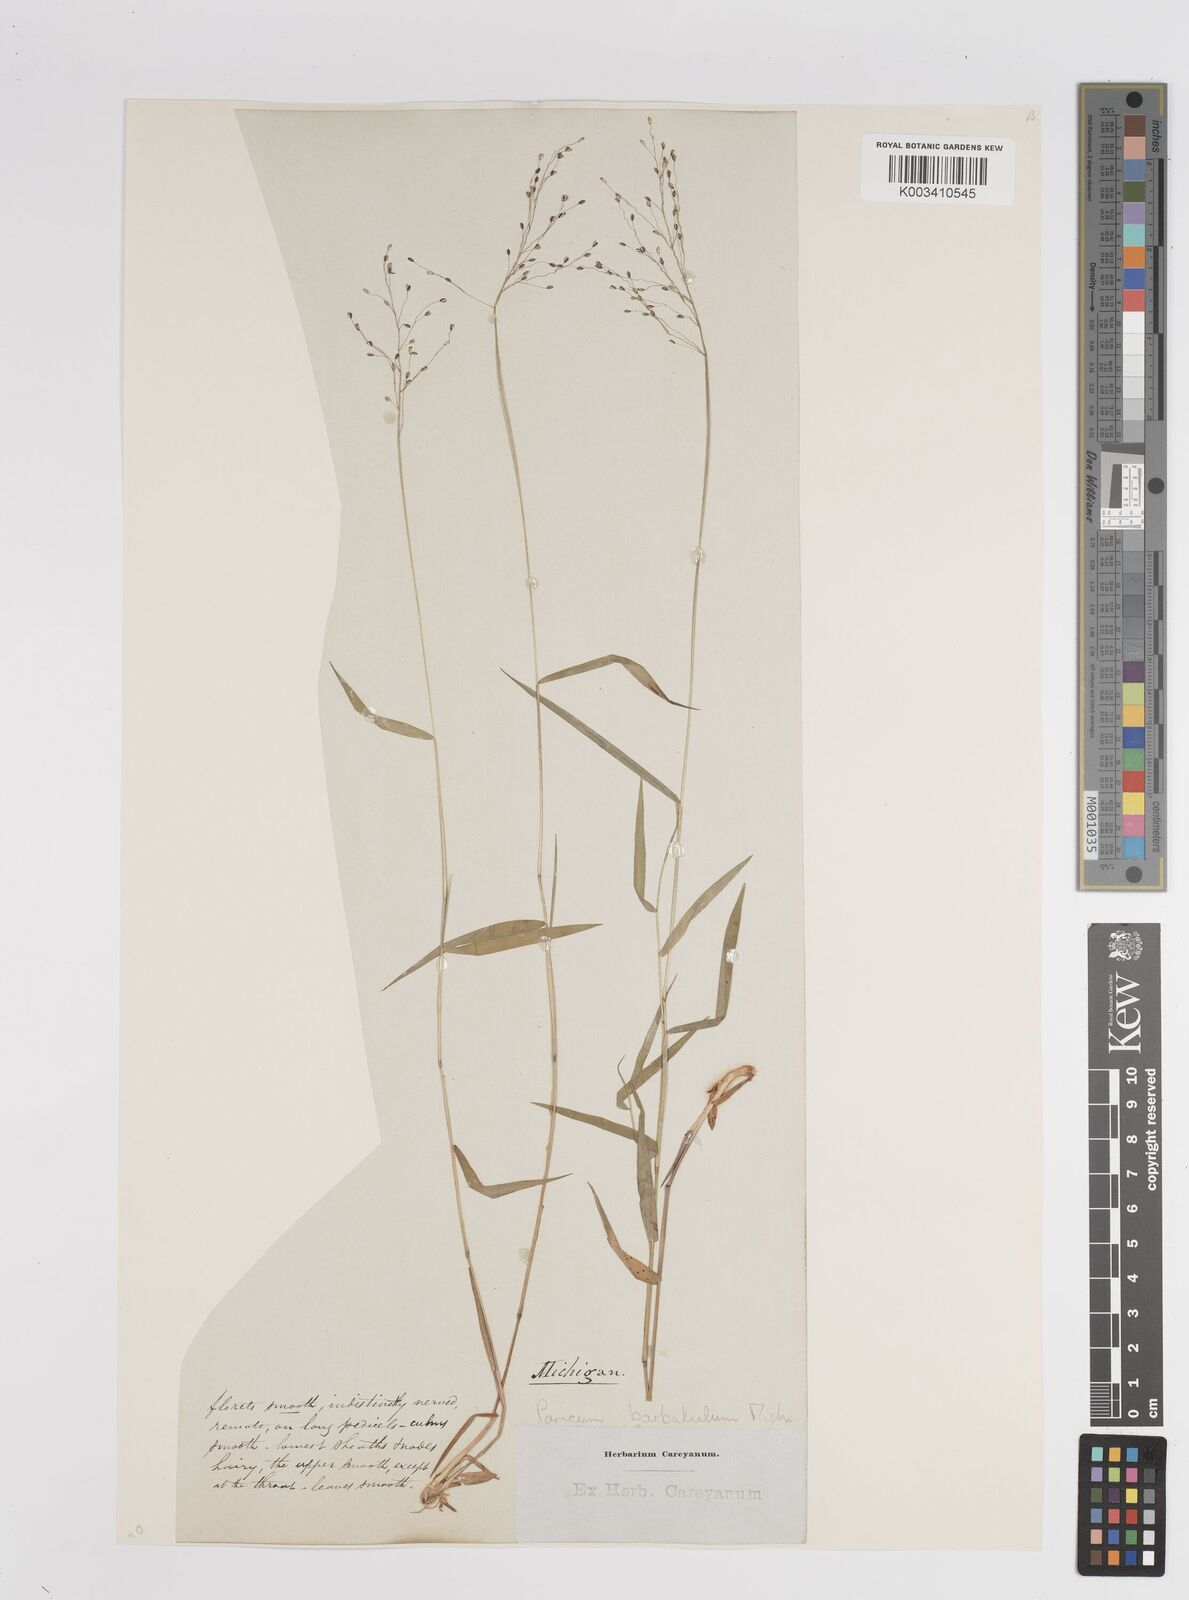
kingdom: Plantae
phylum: Tracheophyta
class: Liliopsida
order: Poales
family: Poaceae
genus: Dichanthelium
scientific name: Dichanthelium dichotomum
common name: Cypress panicgrass
